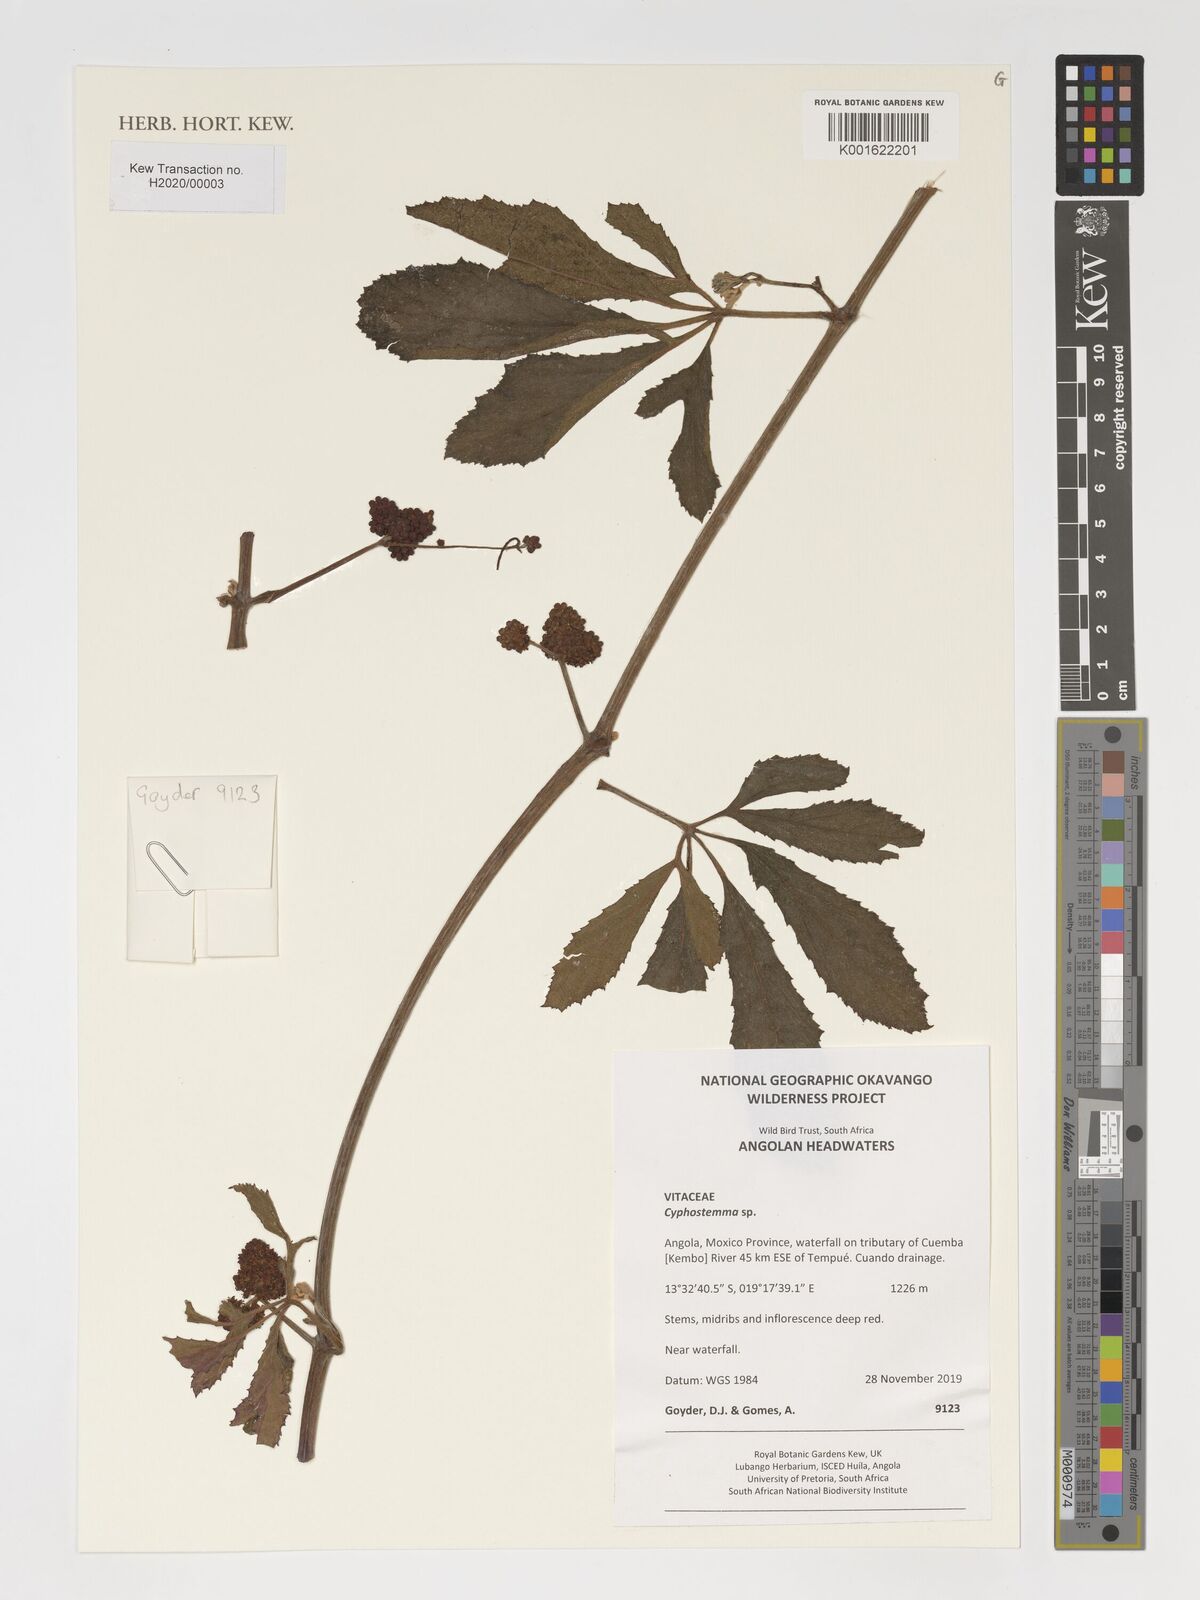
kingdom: Plantae
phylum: Tracheophyta
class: Magnoliopsida
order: Vitales
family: Vitaceae
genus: Cyphostemma
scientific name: Cyphostemma
